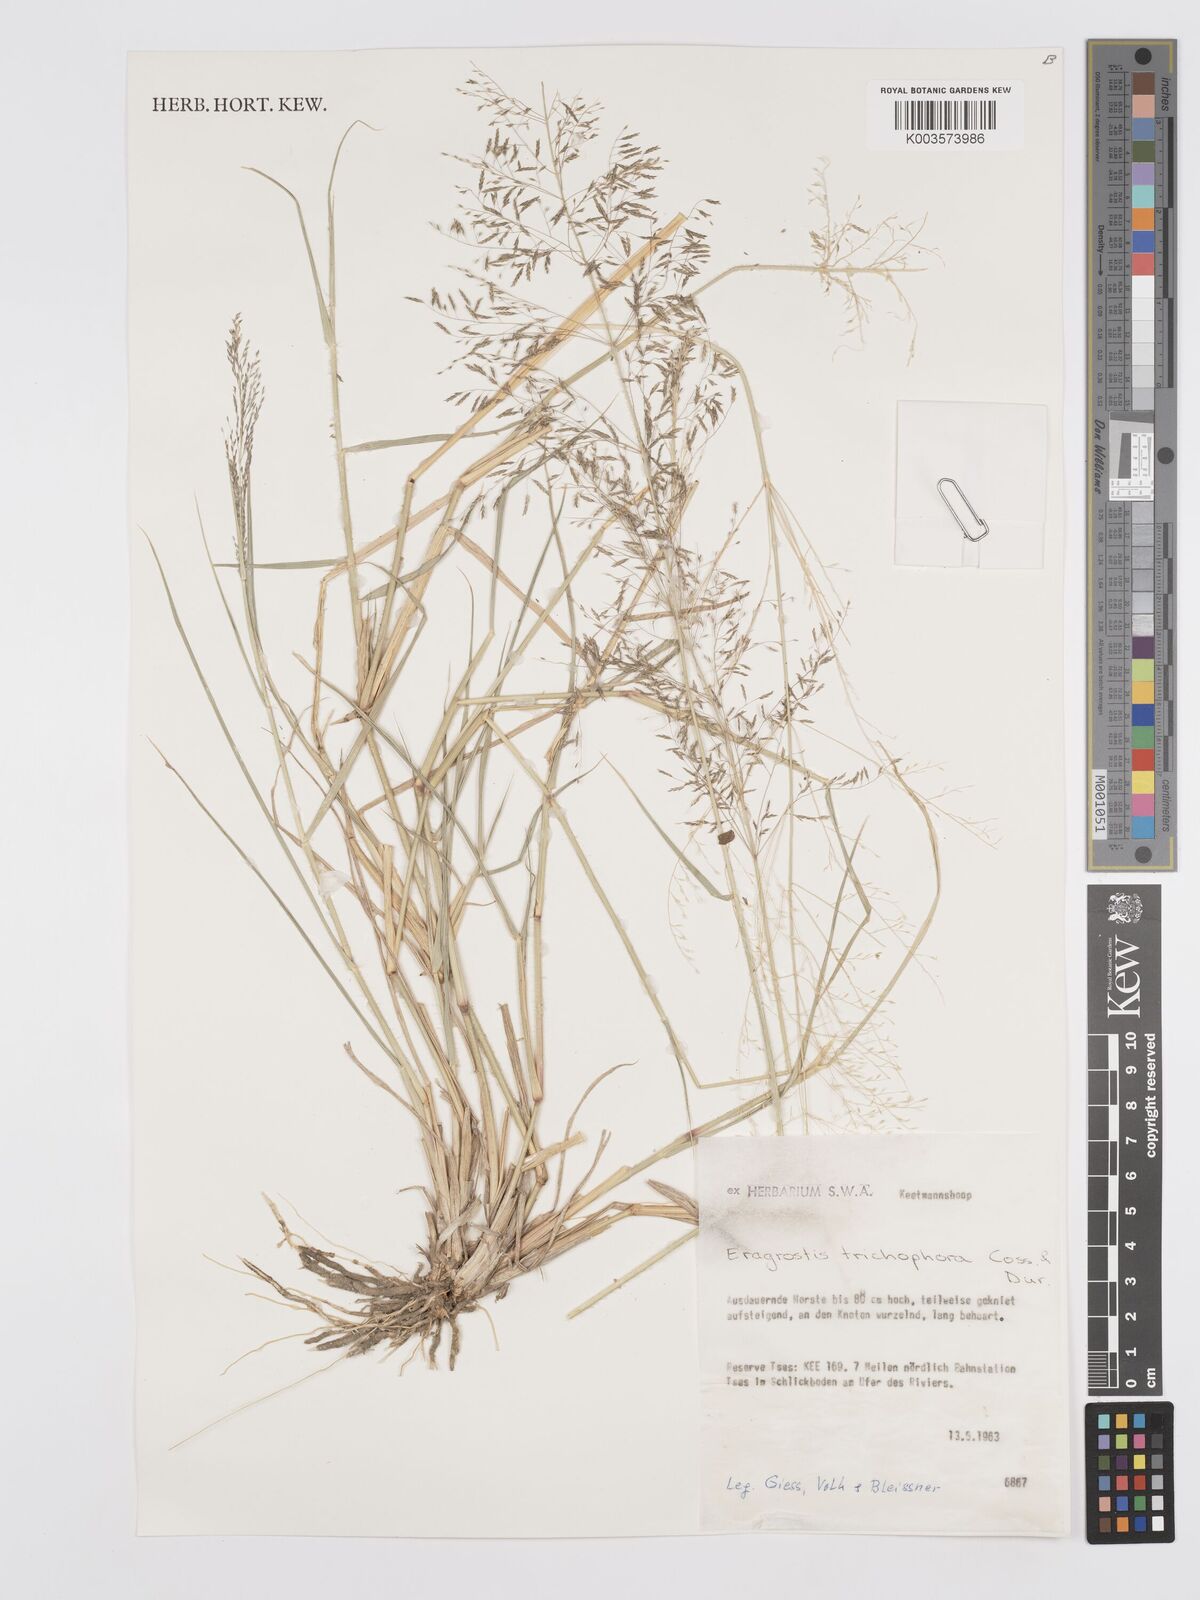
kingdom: Plantae
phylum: Tracheophyta
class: Liliopsida
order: Poales
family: Poaceae
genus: Eragrostis
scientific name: Eragrostis cylindriflora
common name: Cylinderflower lovegrass
